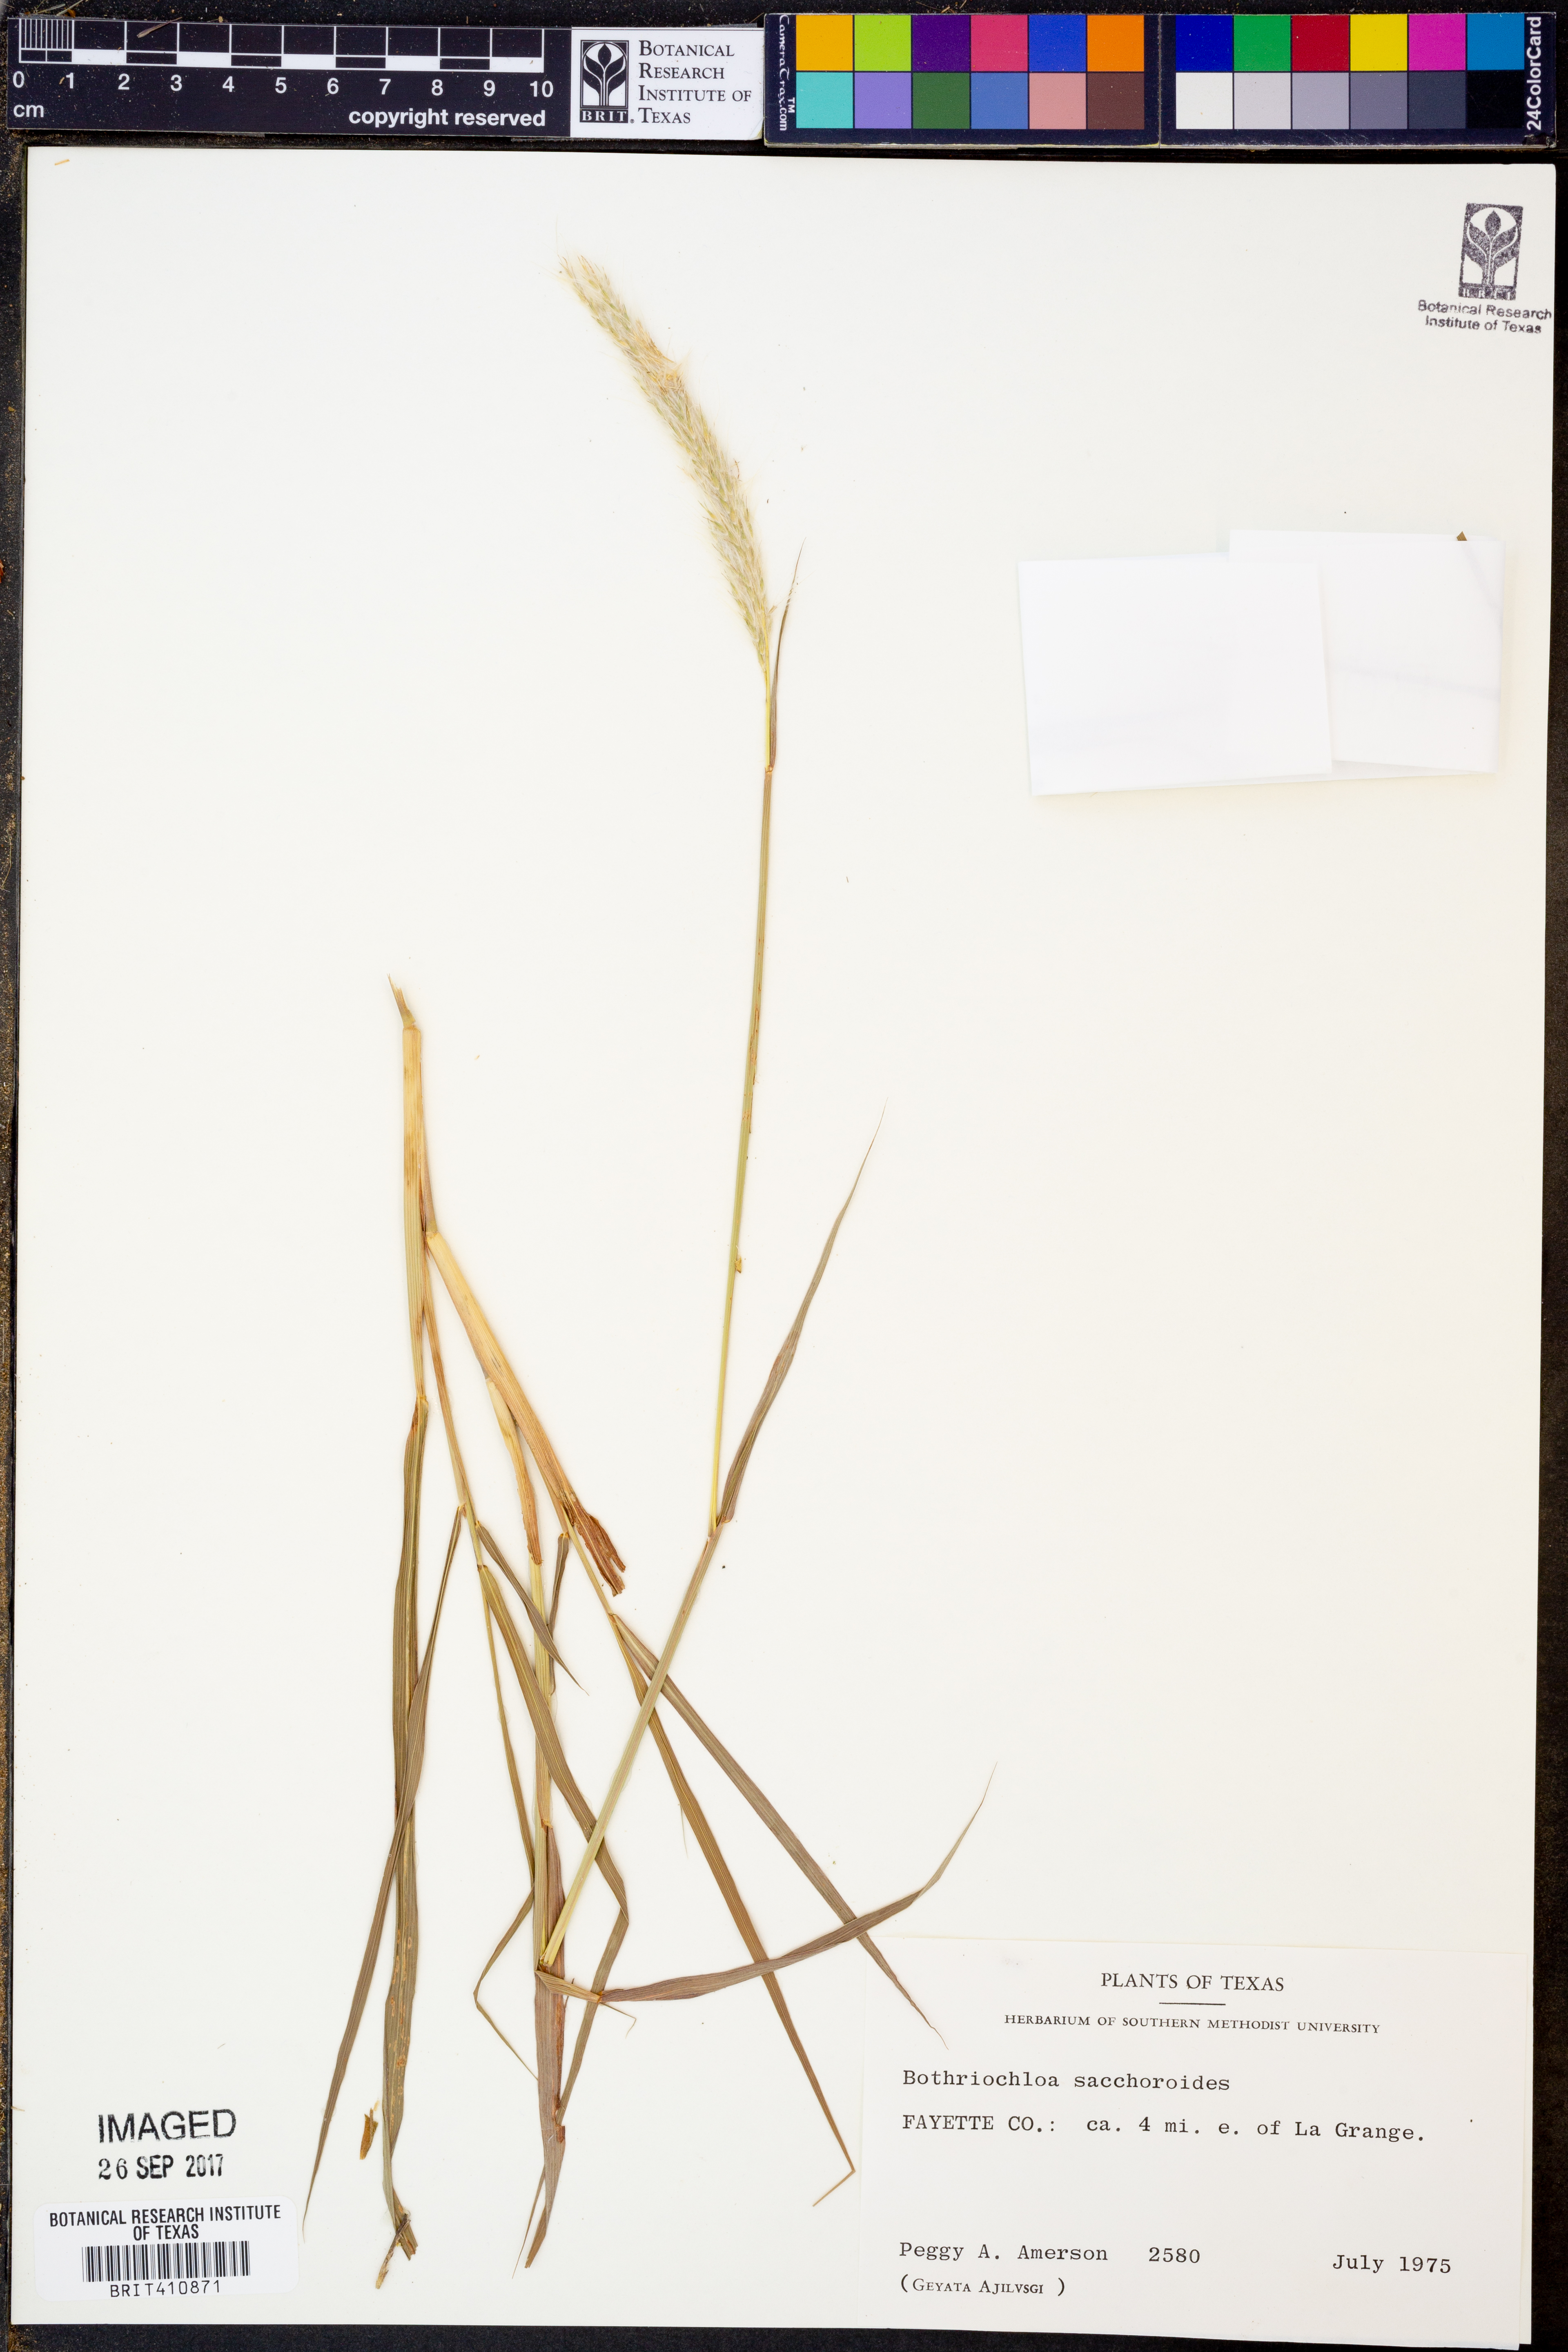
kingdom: Plantae
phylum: Tracheophyta
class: Liliopsida
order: Poales
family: Poaceae
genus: Bothriochloa
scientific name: Bothriochloa saccharoides
